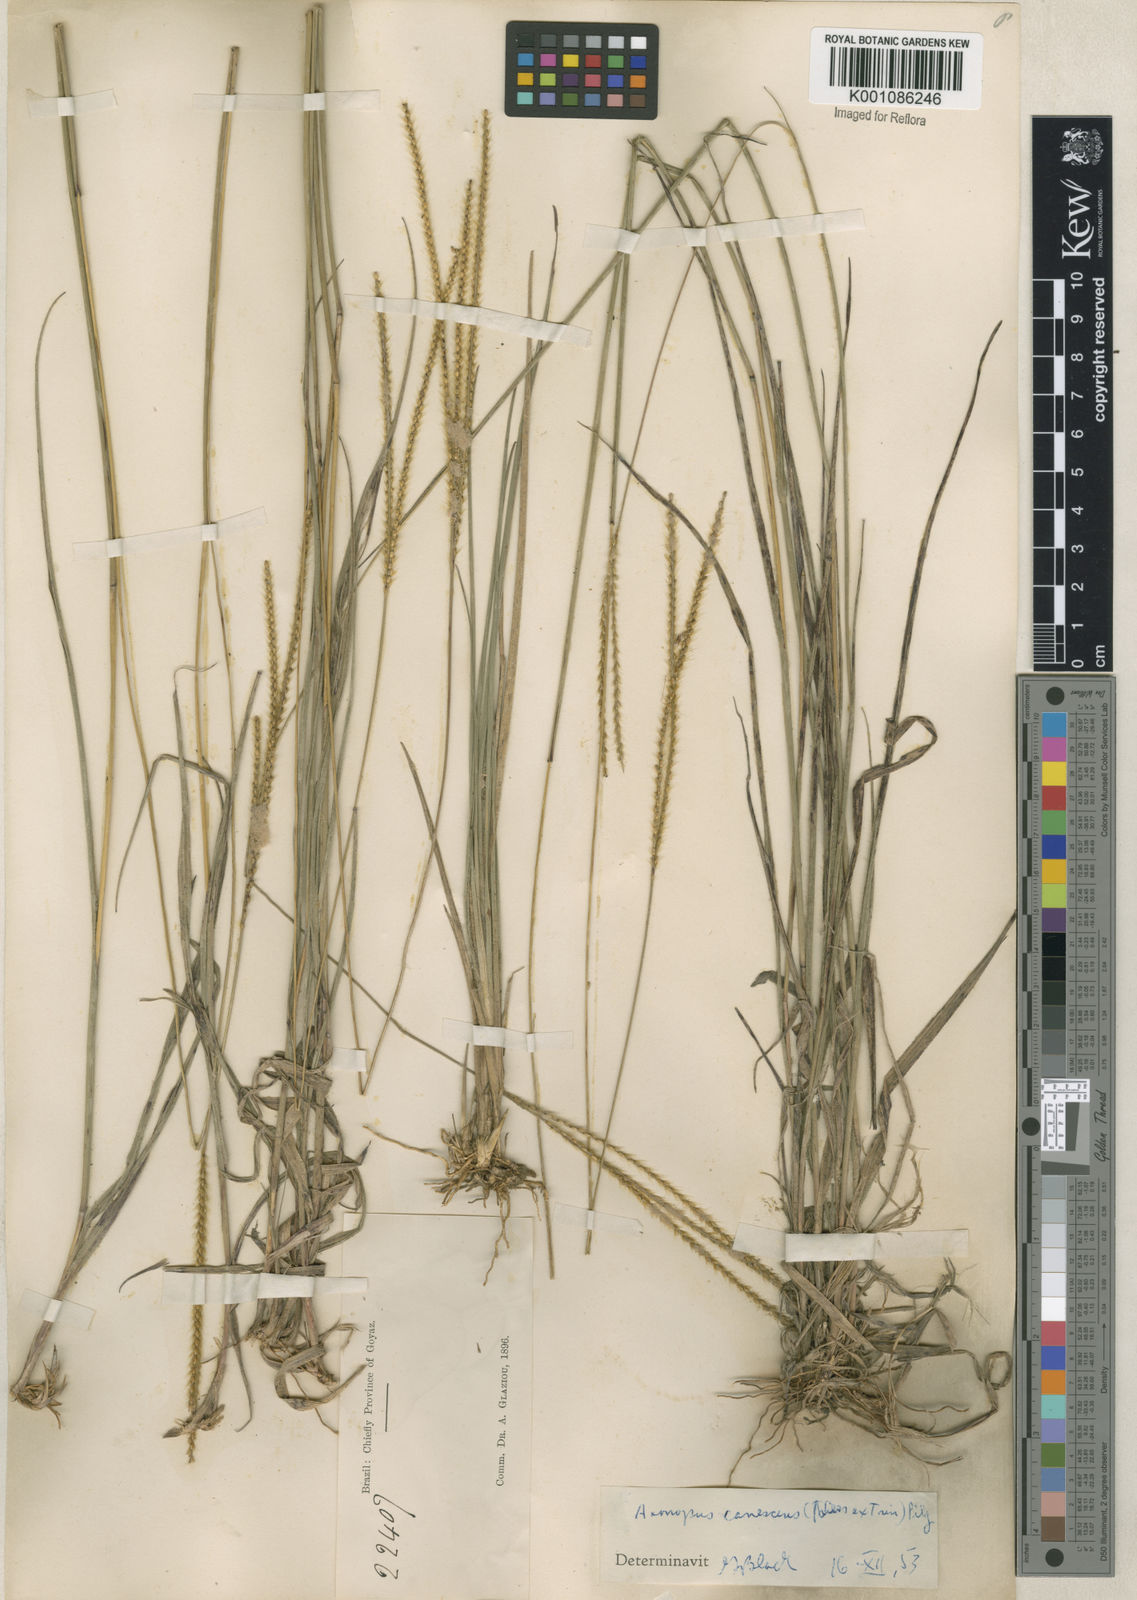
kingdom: Plantae
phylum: Tracheophyta
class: Liliopsida
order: Poales
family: Poaceae
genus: Axonopus
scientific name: Axonopus aureus
